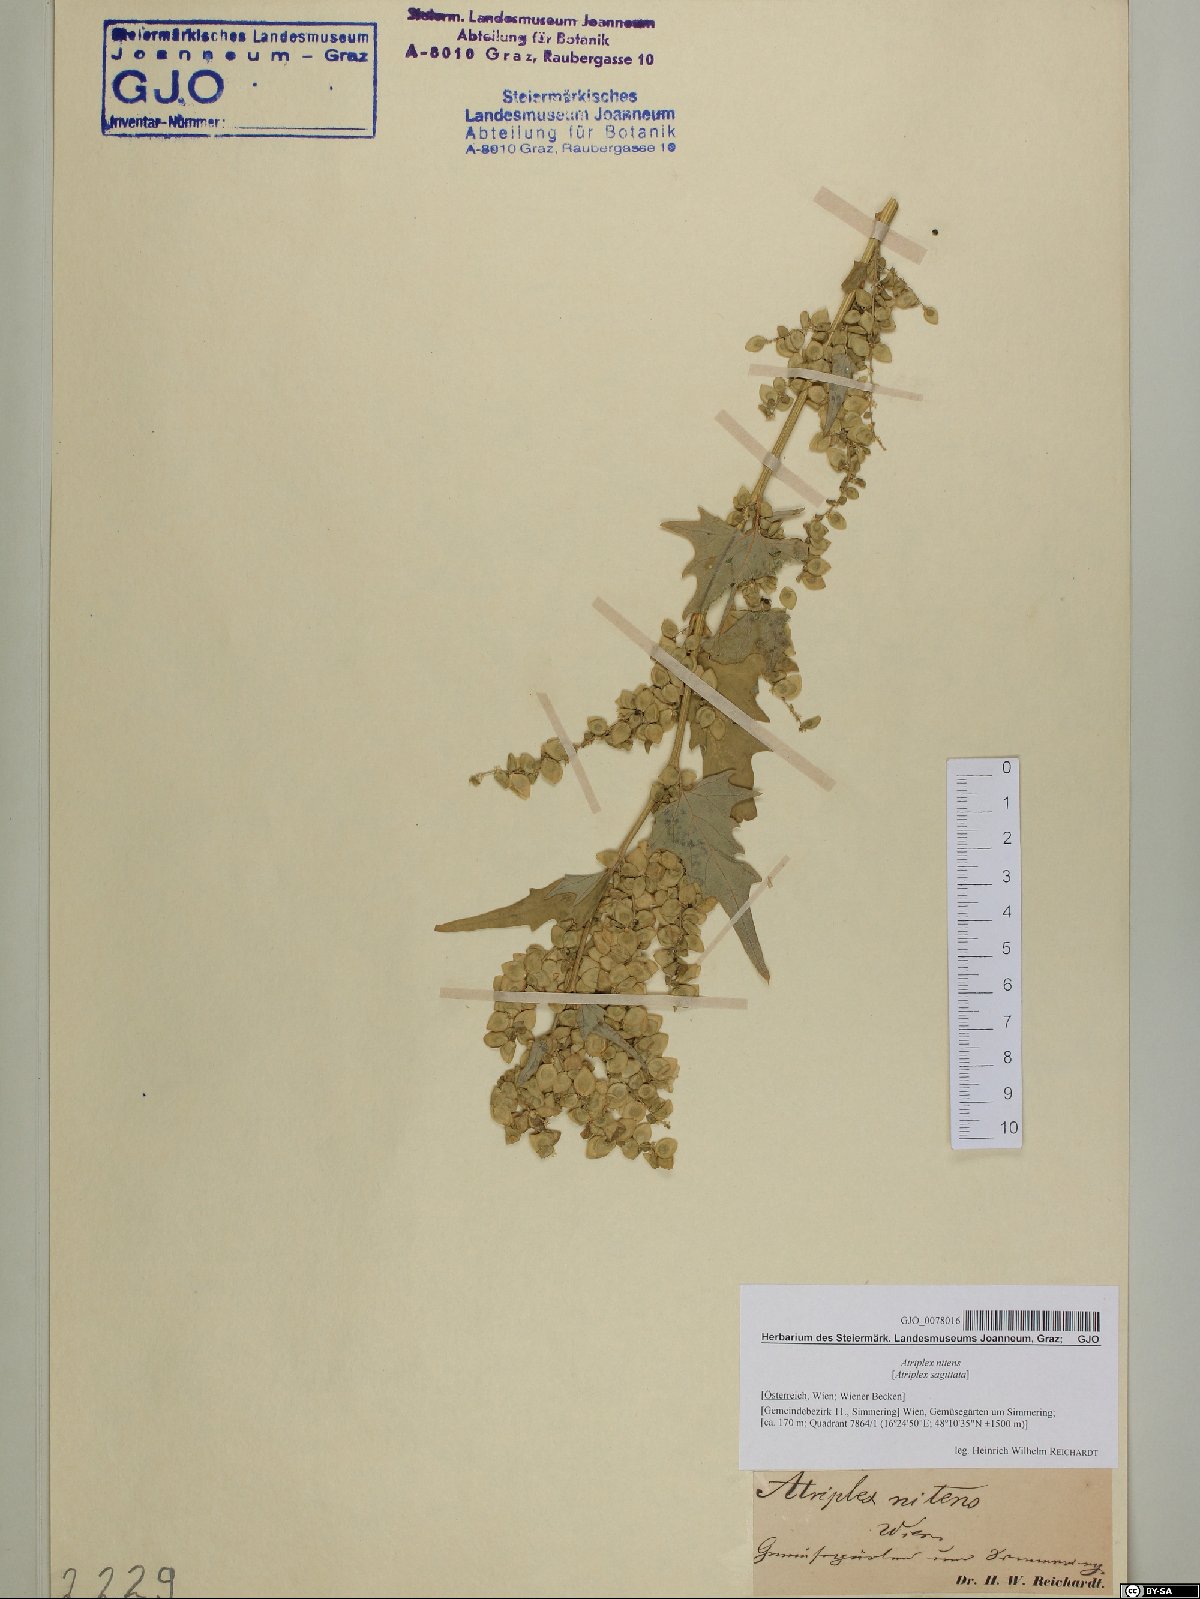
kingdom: Plantae
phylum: Tracheophyta
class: Magnoliopsida
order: Caryophyllales
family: Amaranthaceae
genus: Atriplex
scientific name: Atriplex sagittata
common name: Purple orache
